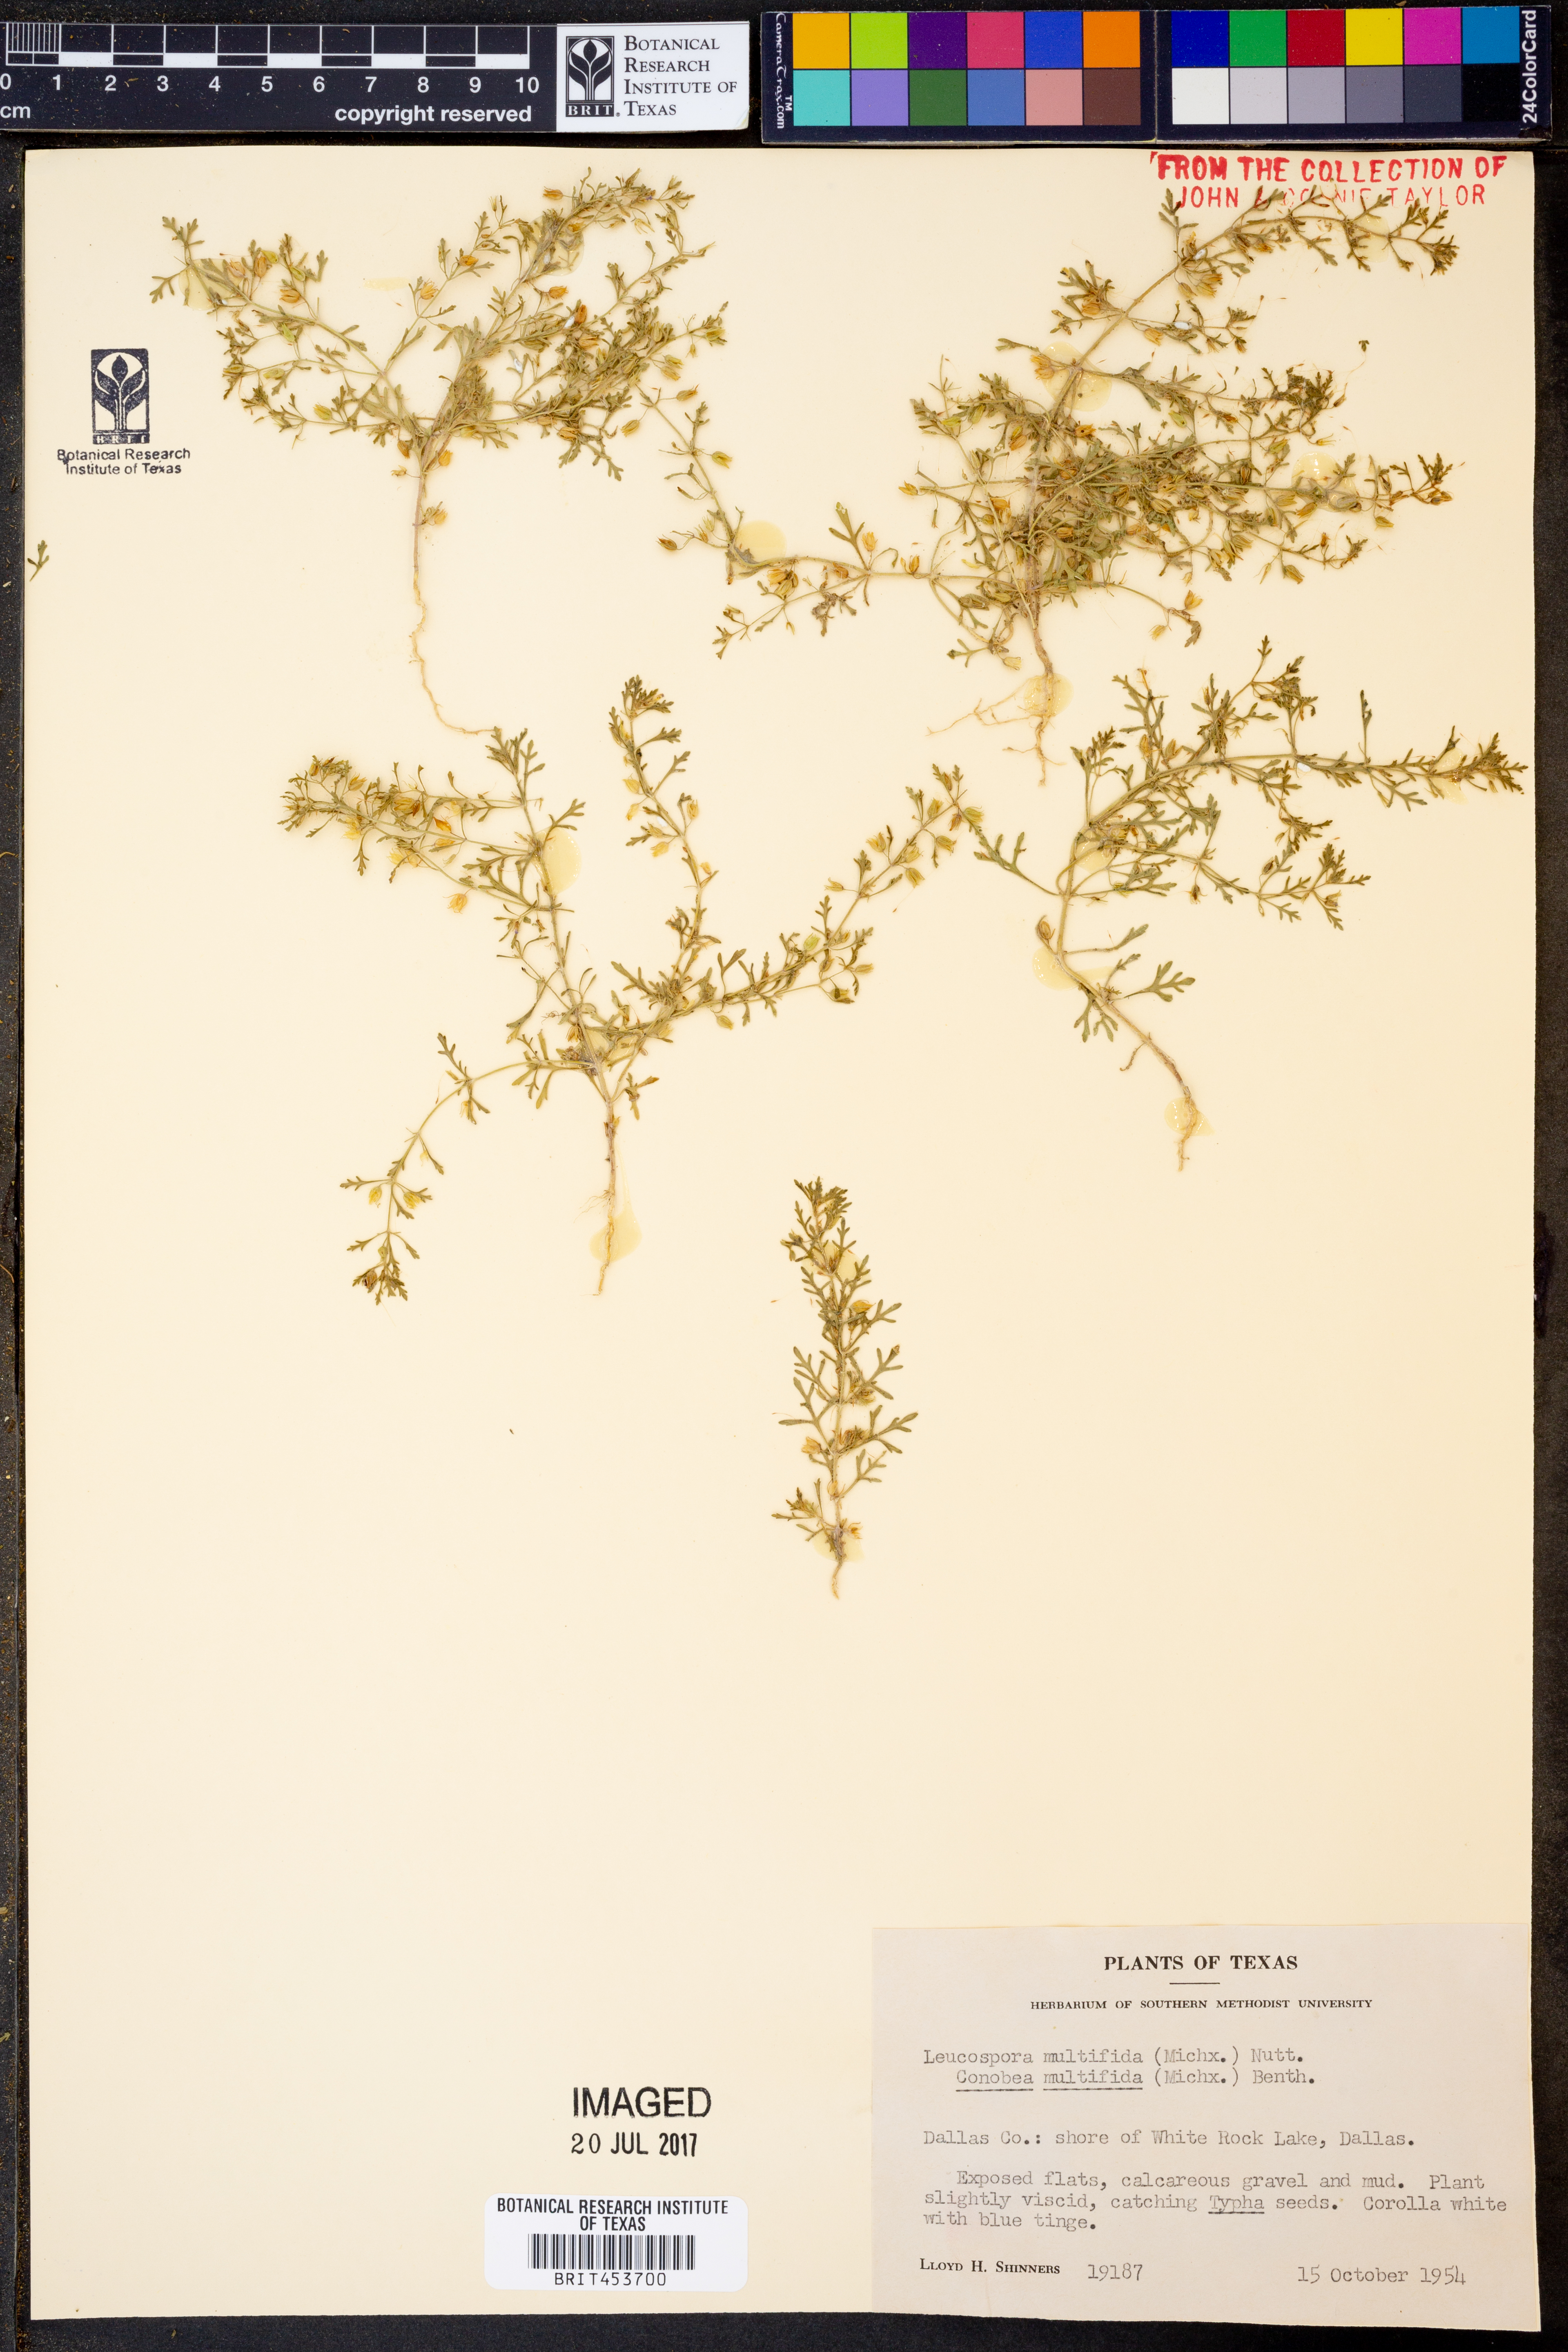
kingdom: Plantae
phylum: Tracheophyta
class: Magnoliopsida
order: Lamiales
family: Plantaginaceae
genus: Leucospora
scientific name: Leucospora multifida
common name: Narrow-leaf paleseed
